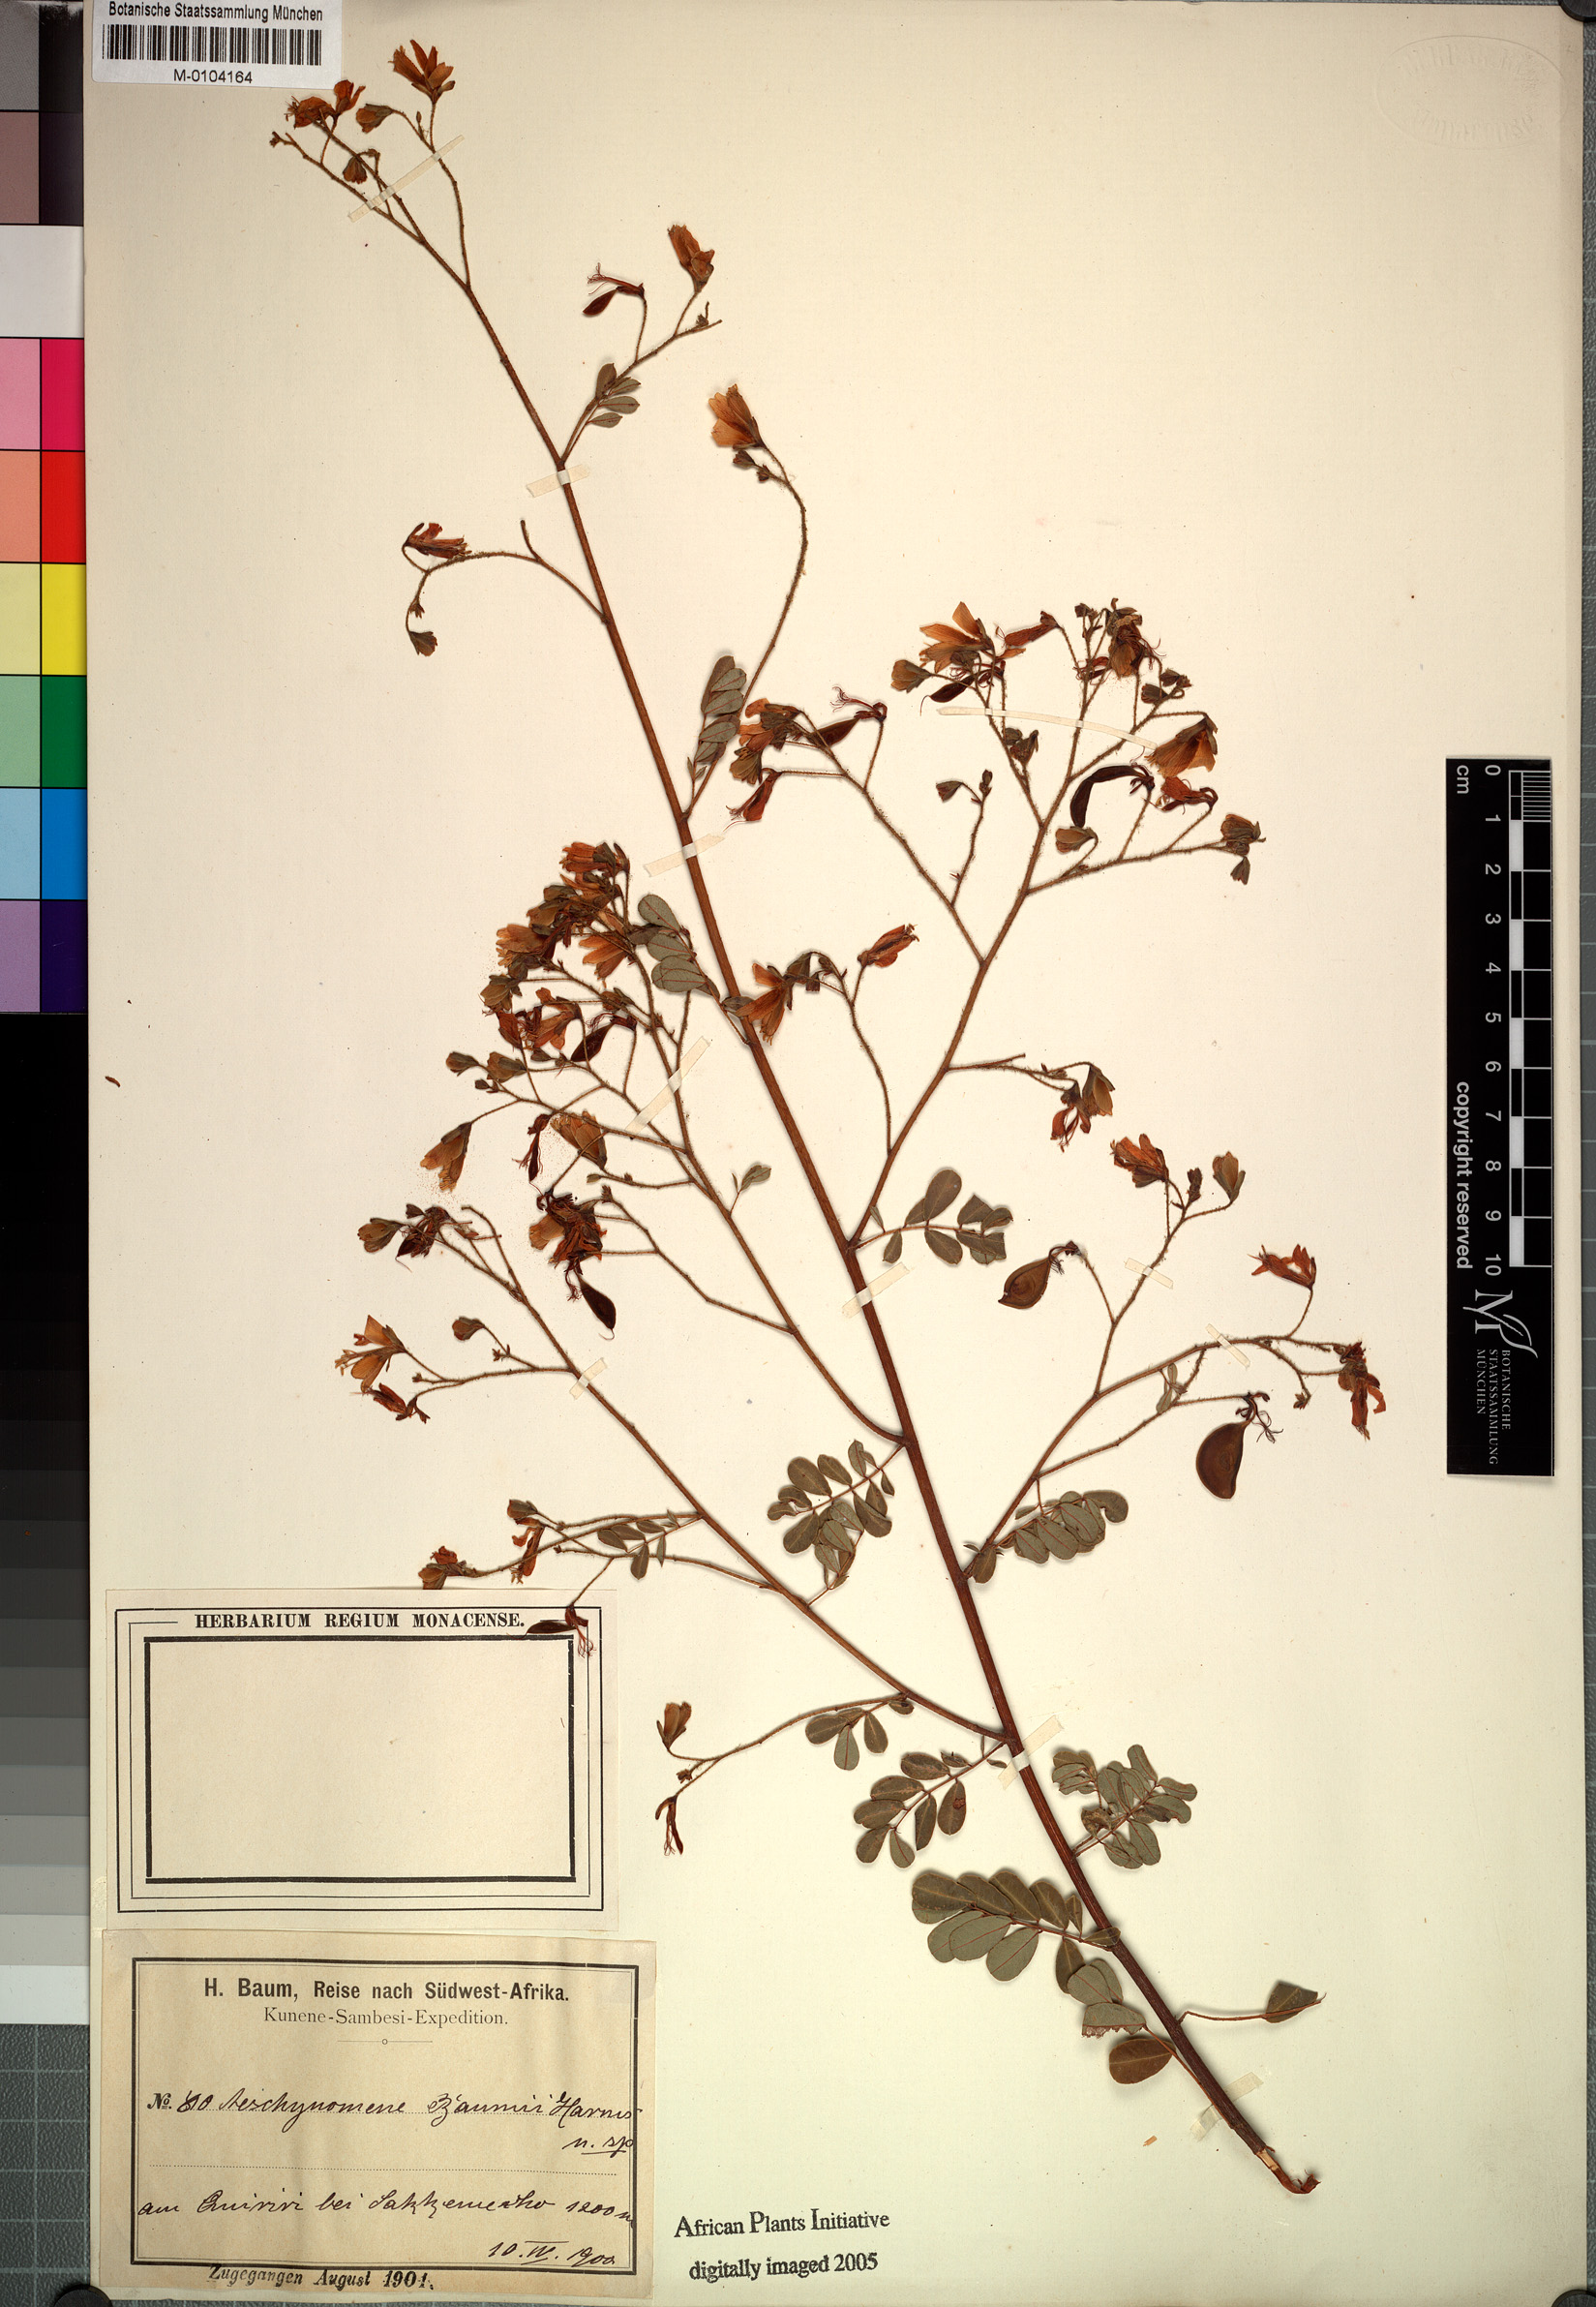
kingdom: Plantae
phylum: Tracheophyta
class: Magnoliopsida
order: Fabales
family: Fabaceae
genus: Aeschynomene
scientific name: Aeschynomene baumii
